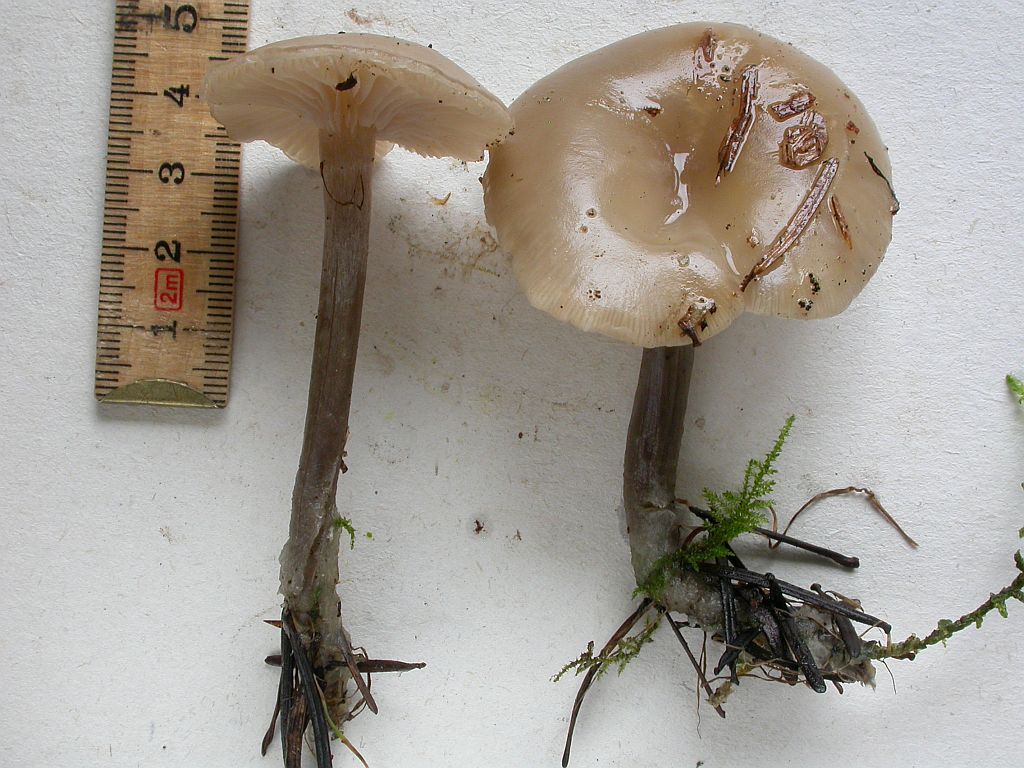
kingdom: Fungi
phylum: Basidiomycota
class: Agaricomycetes
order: Agaricales
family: Tricholomataceae
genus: Clitocybe
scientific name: Clitocybe metachroa
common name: grå tragthat
